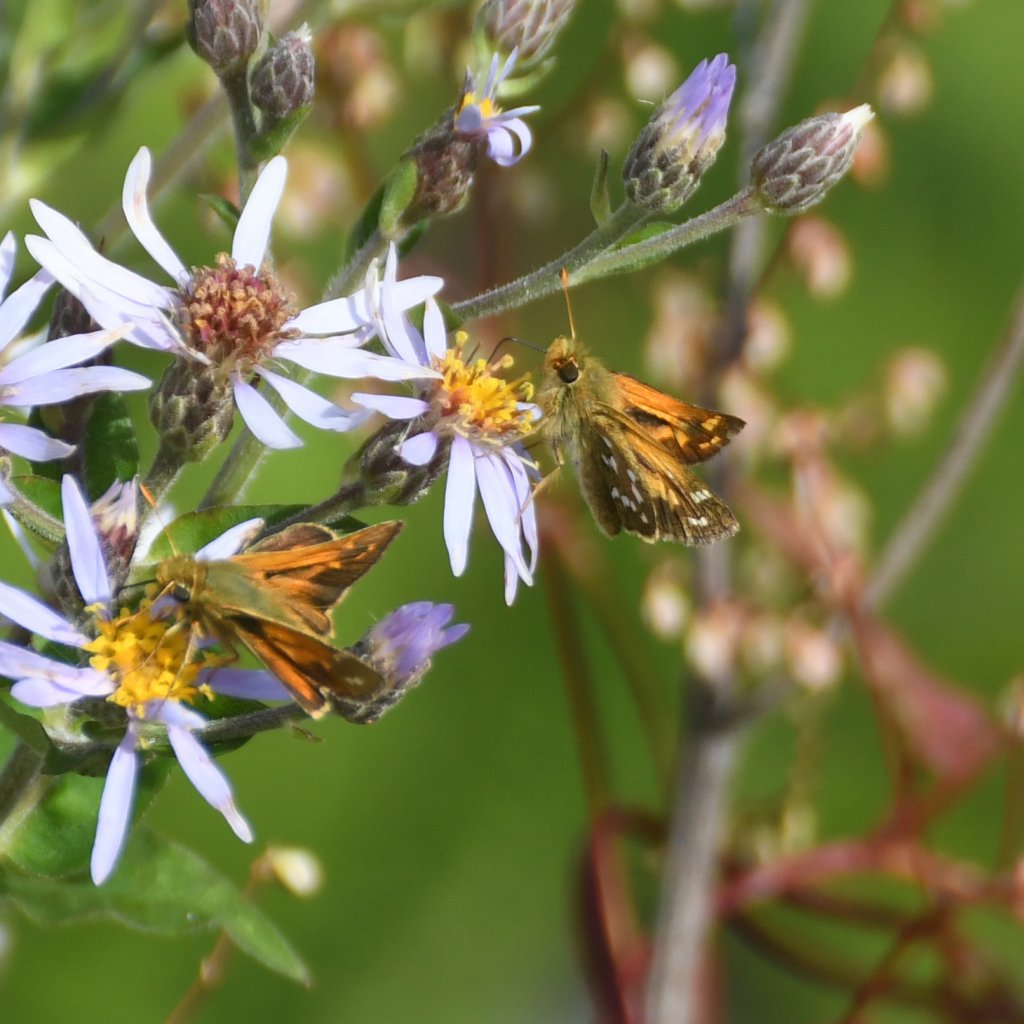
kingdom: Animalia
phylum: Arthropoda
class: Insecta
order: Lepidoptera
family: Hesperiidae
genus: Hesperia
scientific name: Hesperia comma
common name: Common Branded Skipper
